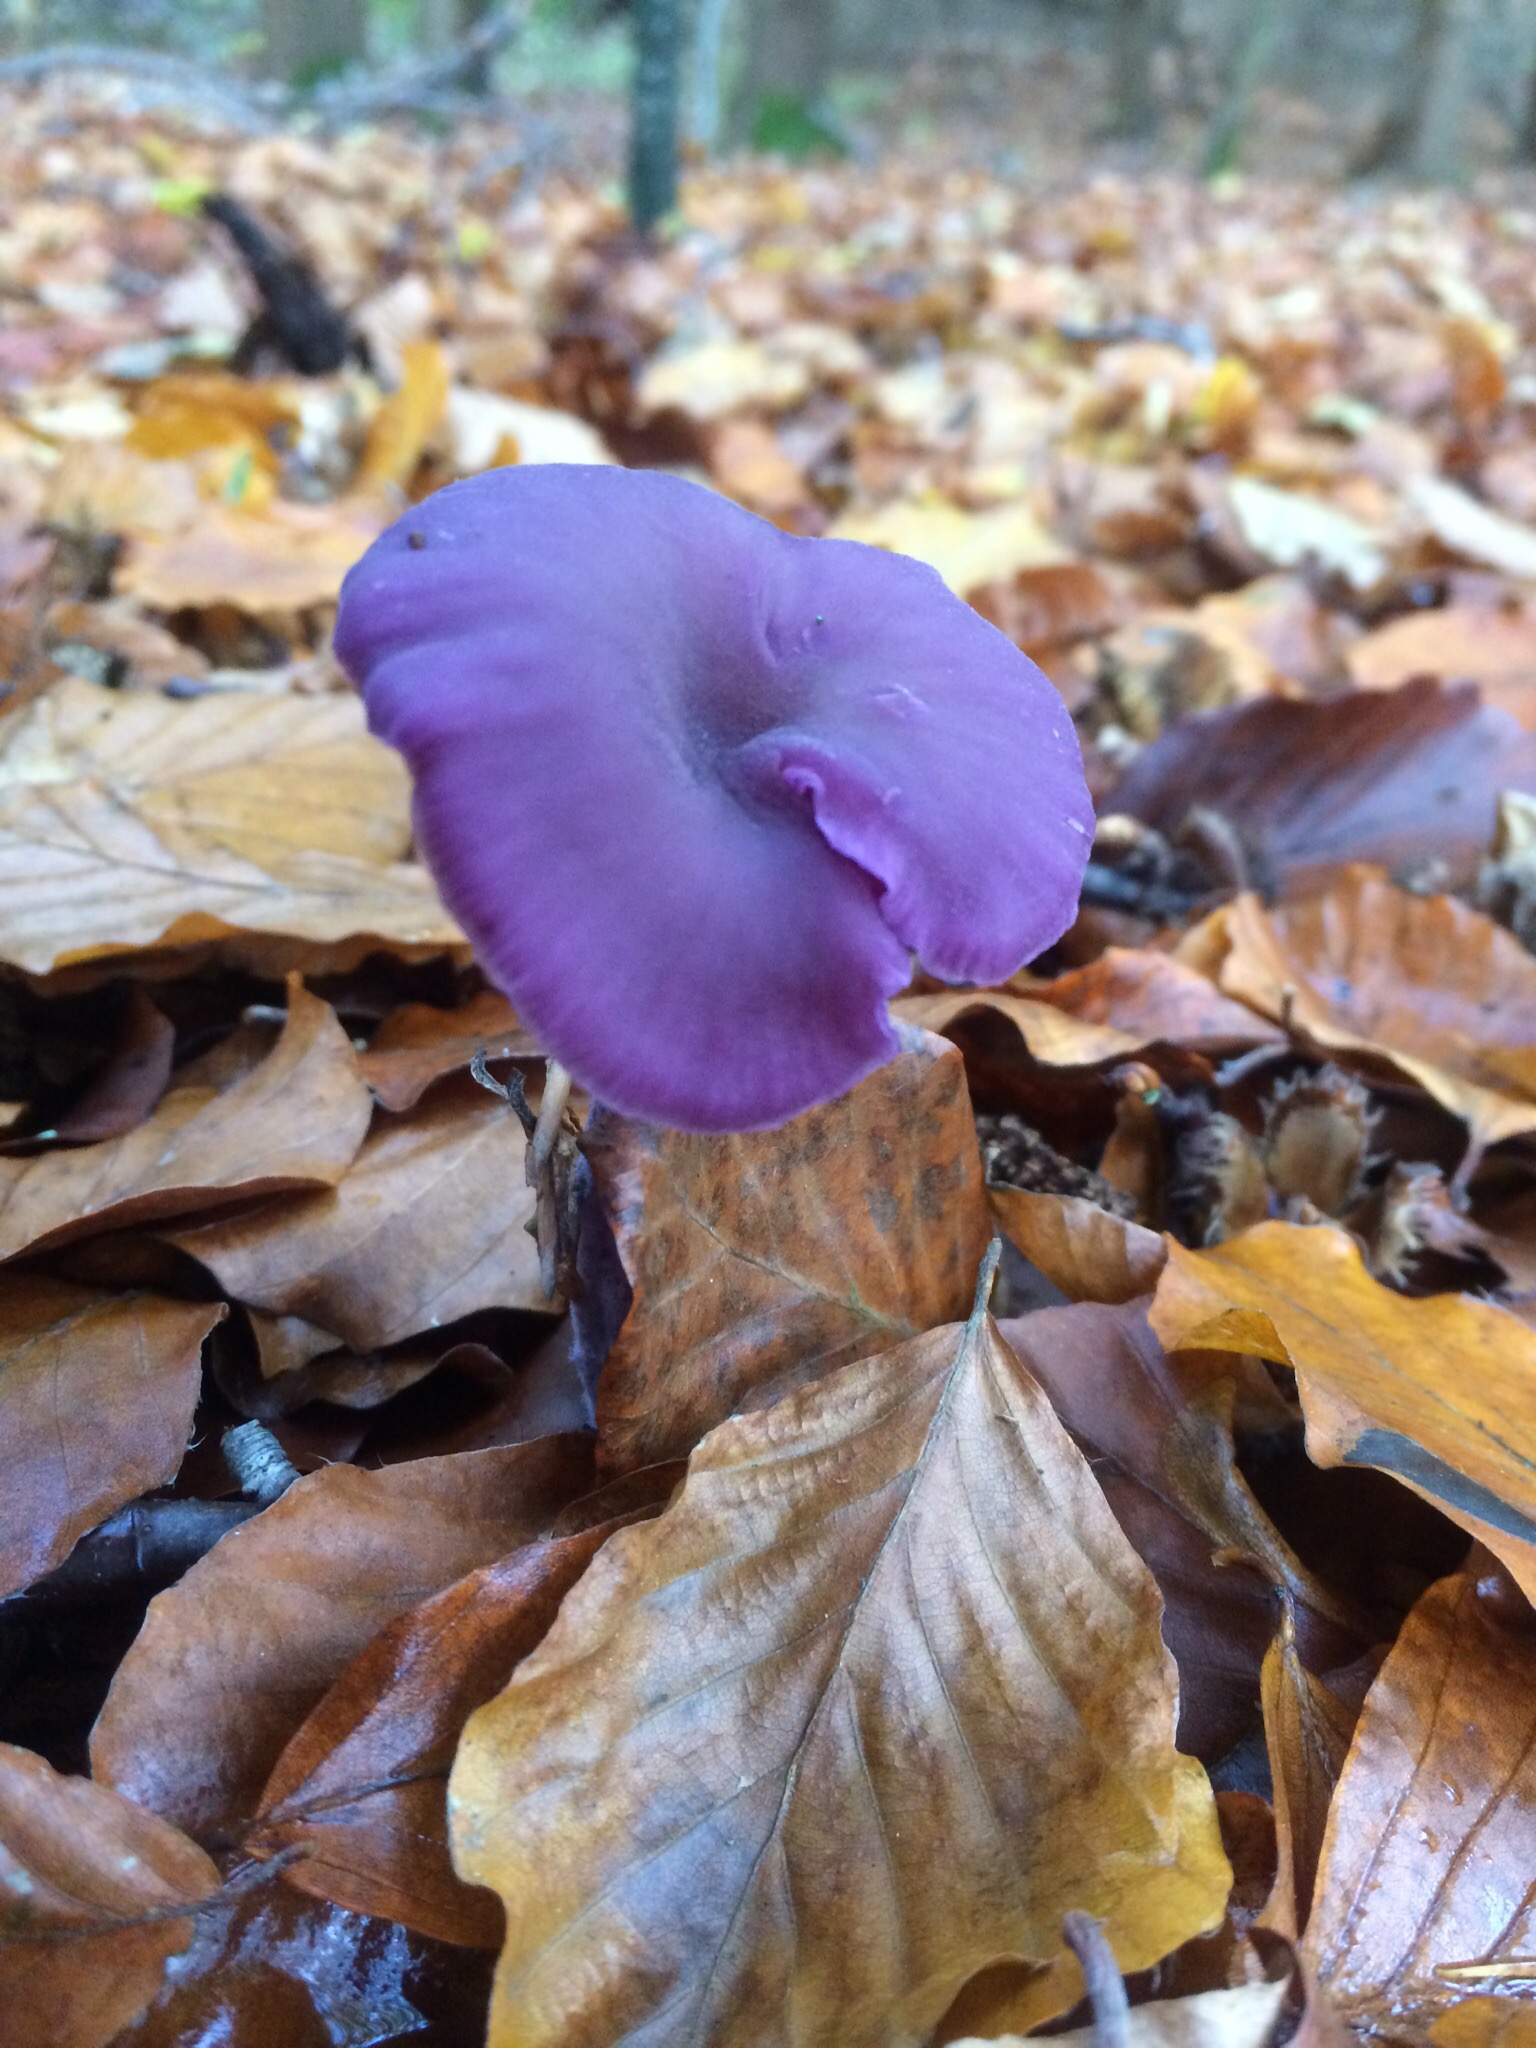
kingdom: Fungi
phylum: Basidiomycota
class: Agaricomycetes
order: Agaricales
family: Hydnangiaceae
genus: Laccaria
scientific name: Laccaria amethystina
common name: violet ametysthat
